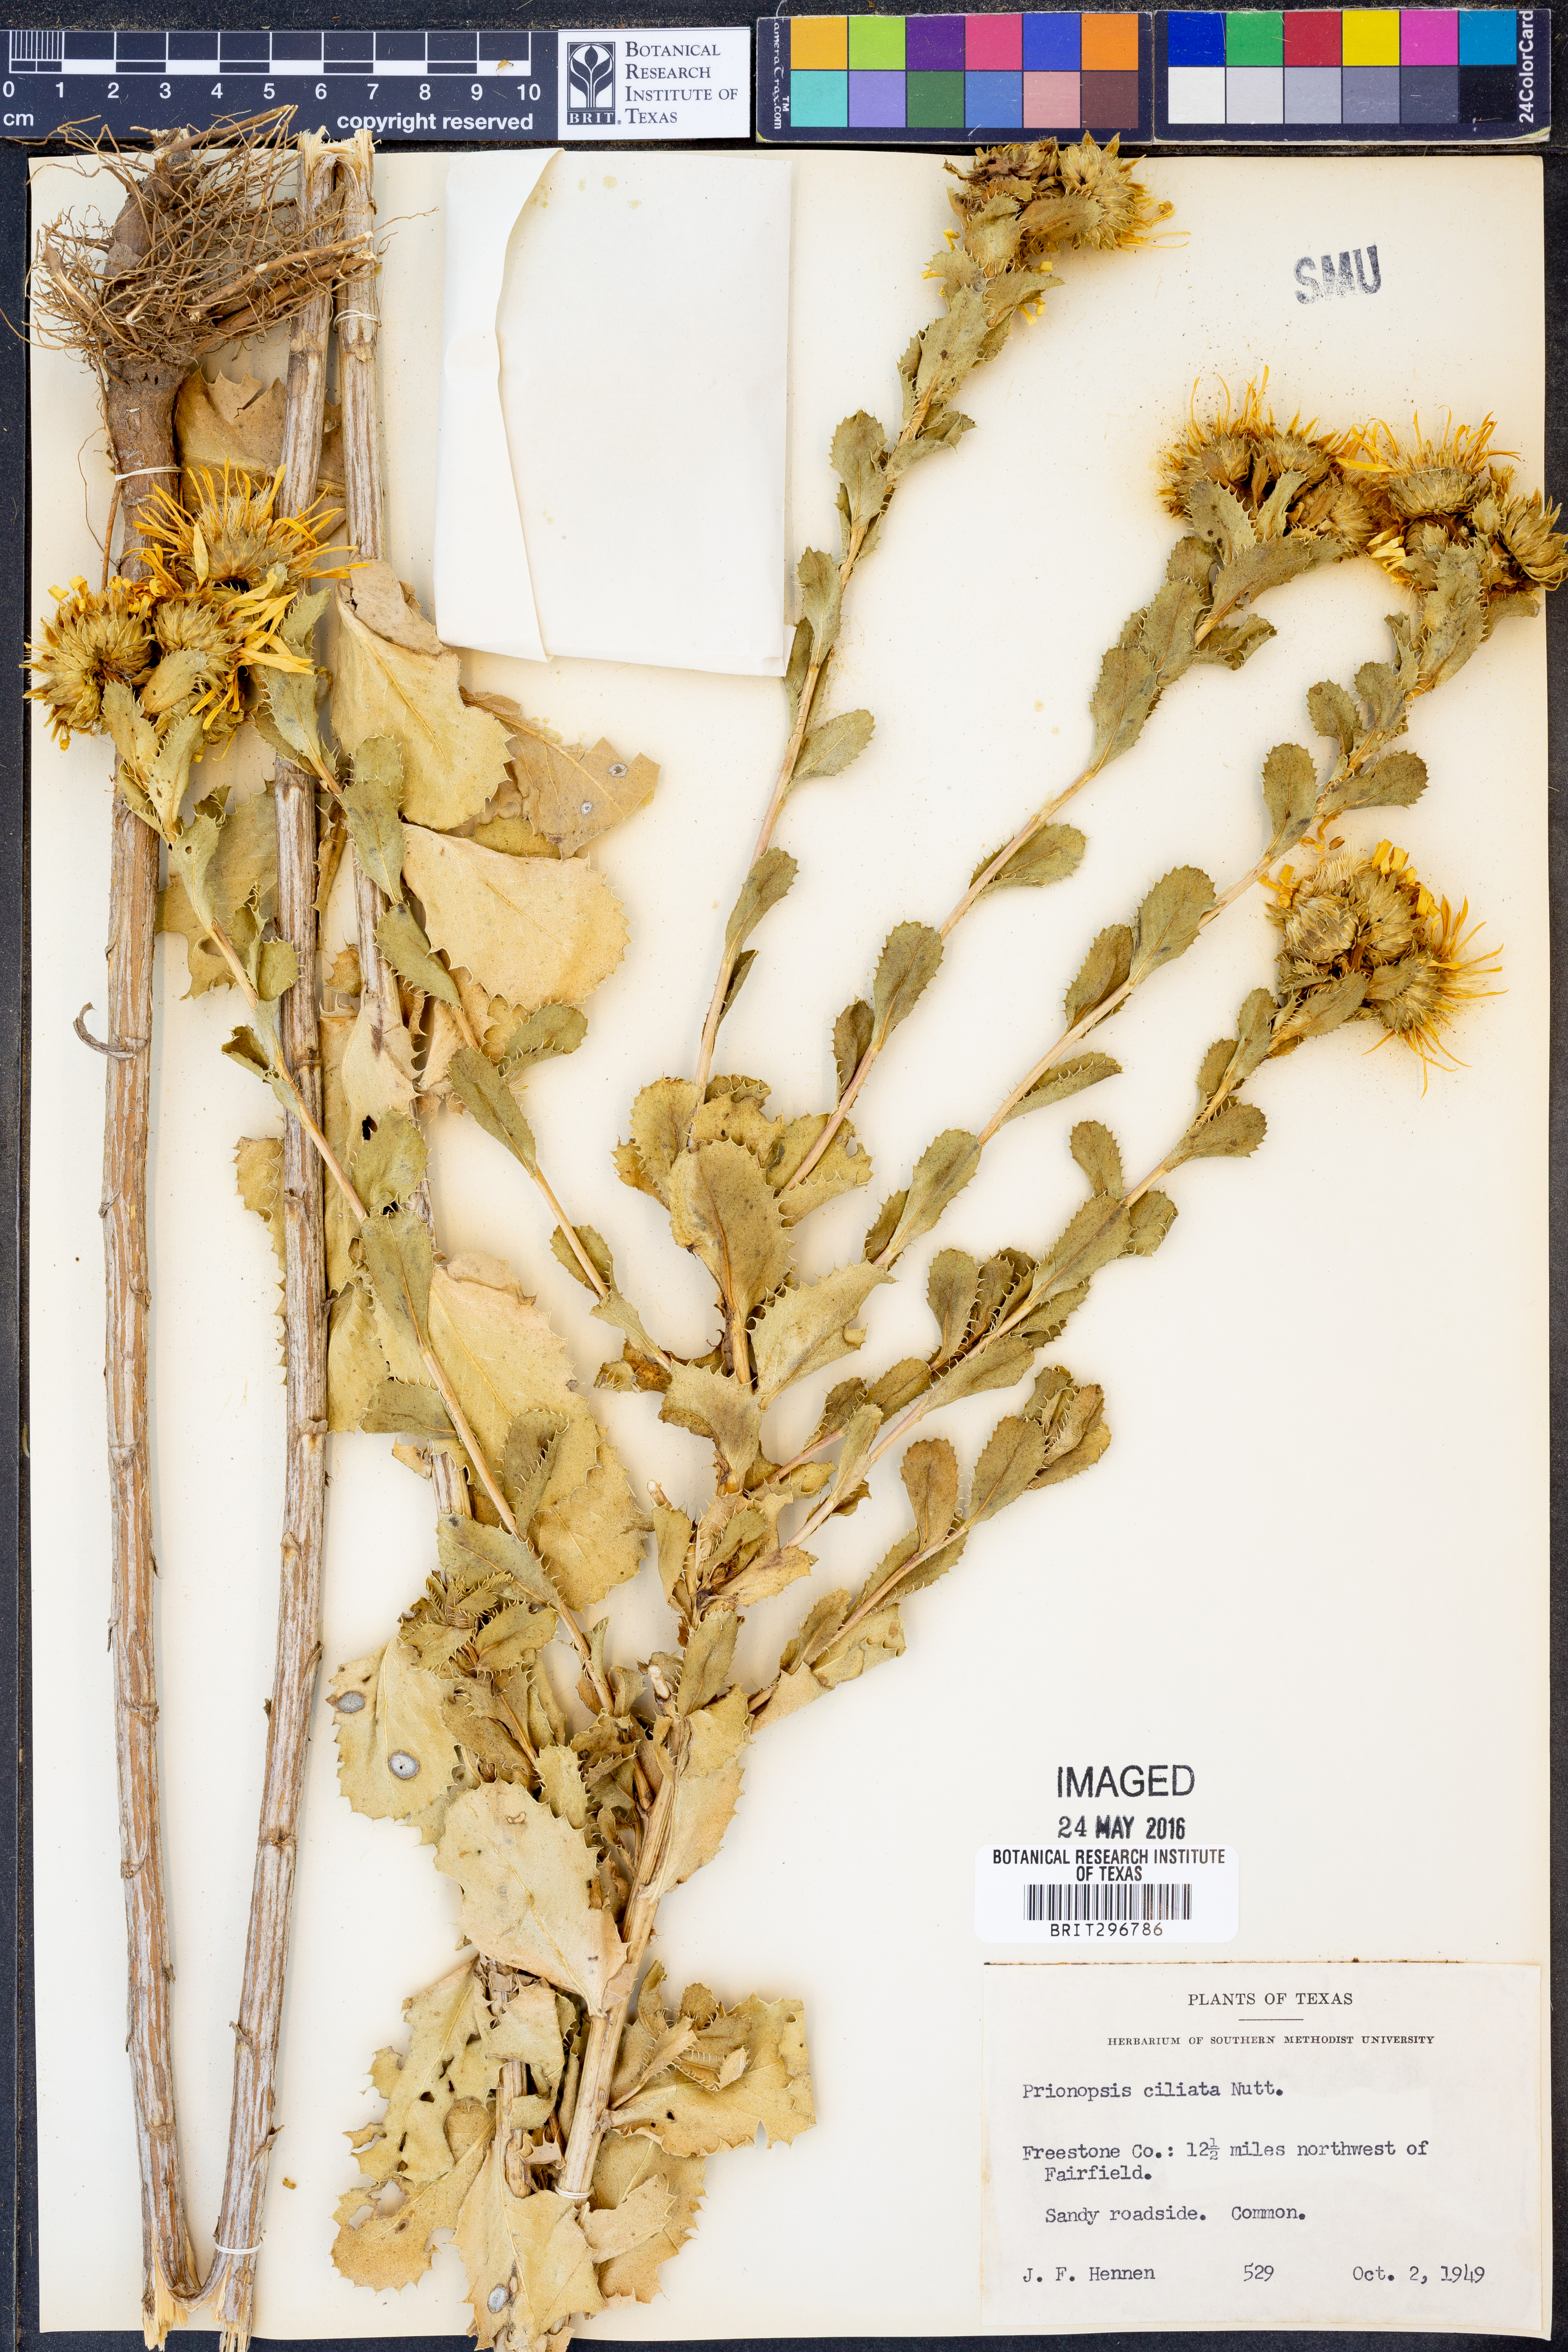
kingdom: Plantae
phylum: Tracheophyta
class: Magnoliopsida
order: Asterales
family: Asteraceae
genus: Grindelia
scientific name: Grindelia ciliata
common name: Goldenweed
